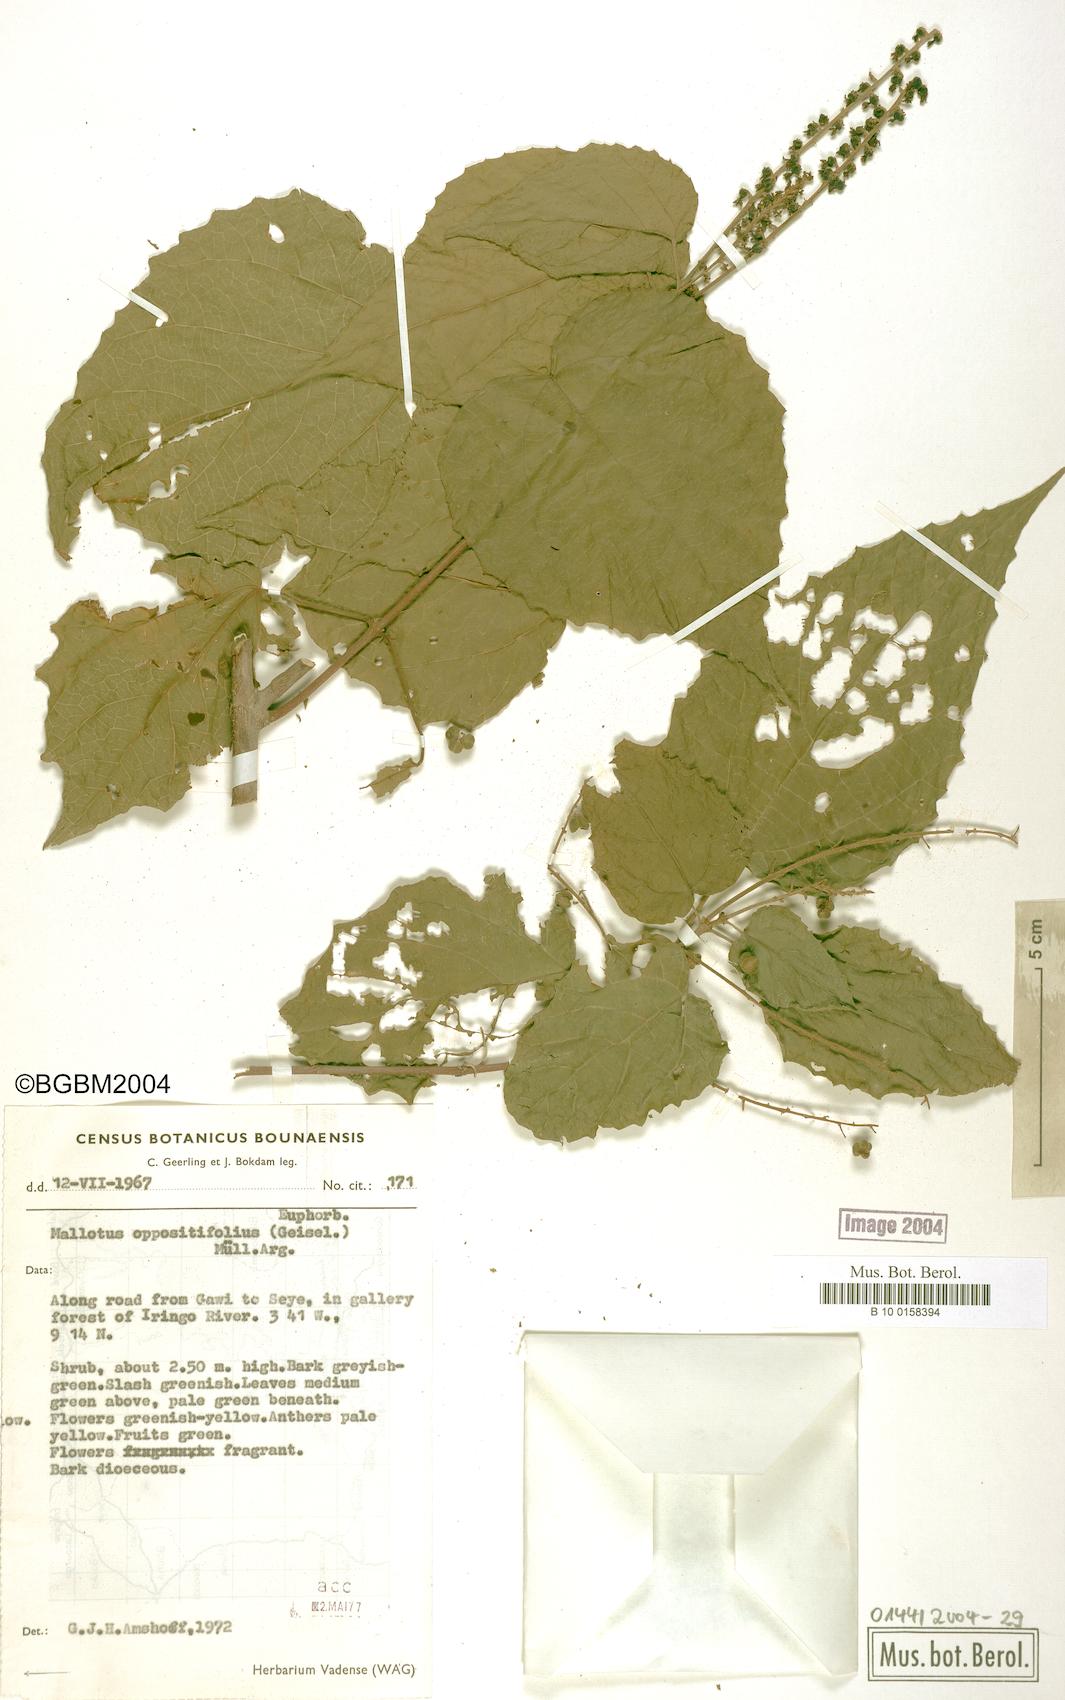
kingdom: Plantae
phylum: Tracheophyta
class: Magnoliopsida
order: Malpighiales
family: Euphorbiaceae
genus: Mallotus
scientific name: Mallotus oppositifolius
